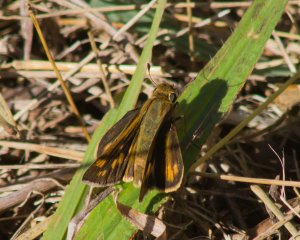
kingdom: Animalia
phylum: Arthropoda
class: Insecta
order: Lepidoptera
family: Hesperiidae
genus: Hylephila
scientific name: Hylephila phyleus
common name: Fiery Skipper
